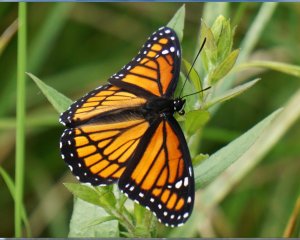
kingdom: Animalia
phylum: Arthropoda
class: Insecta
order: Lepidoptera
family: Nymphalidae
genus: Limenitis
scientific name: Limenitis archippus
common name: Viceroy
